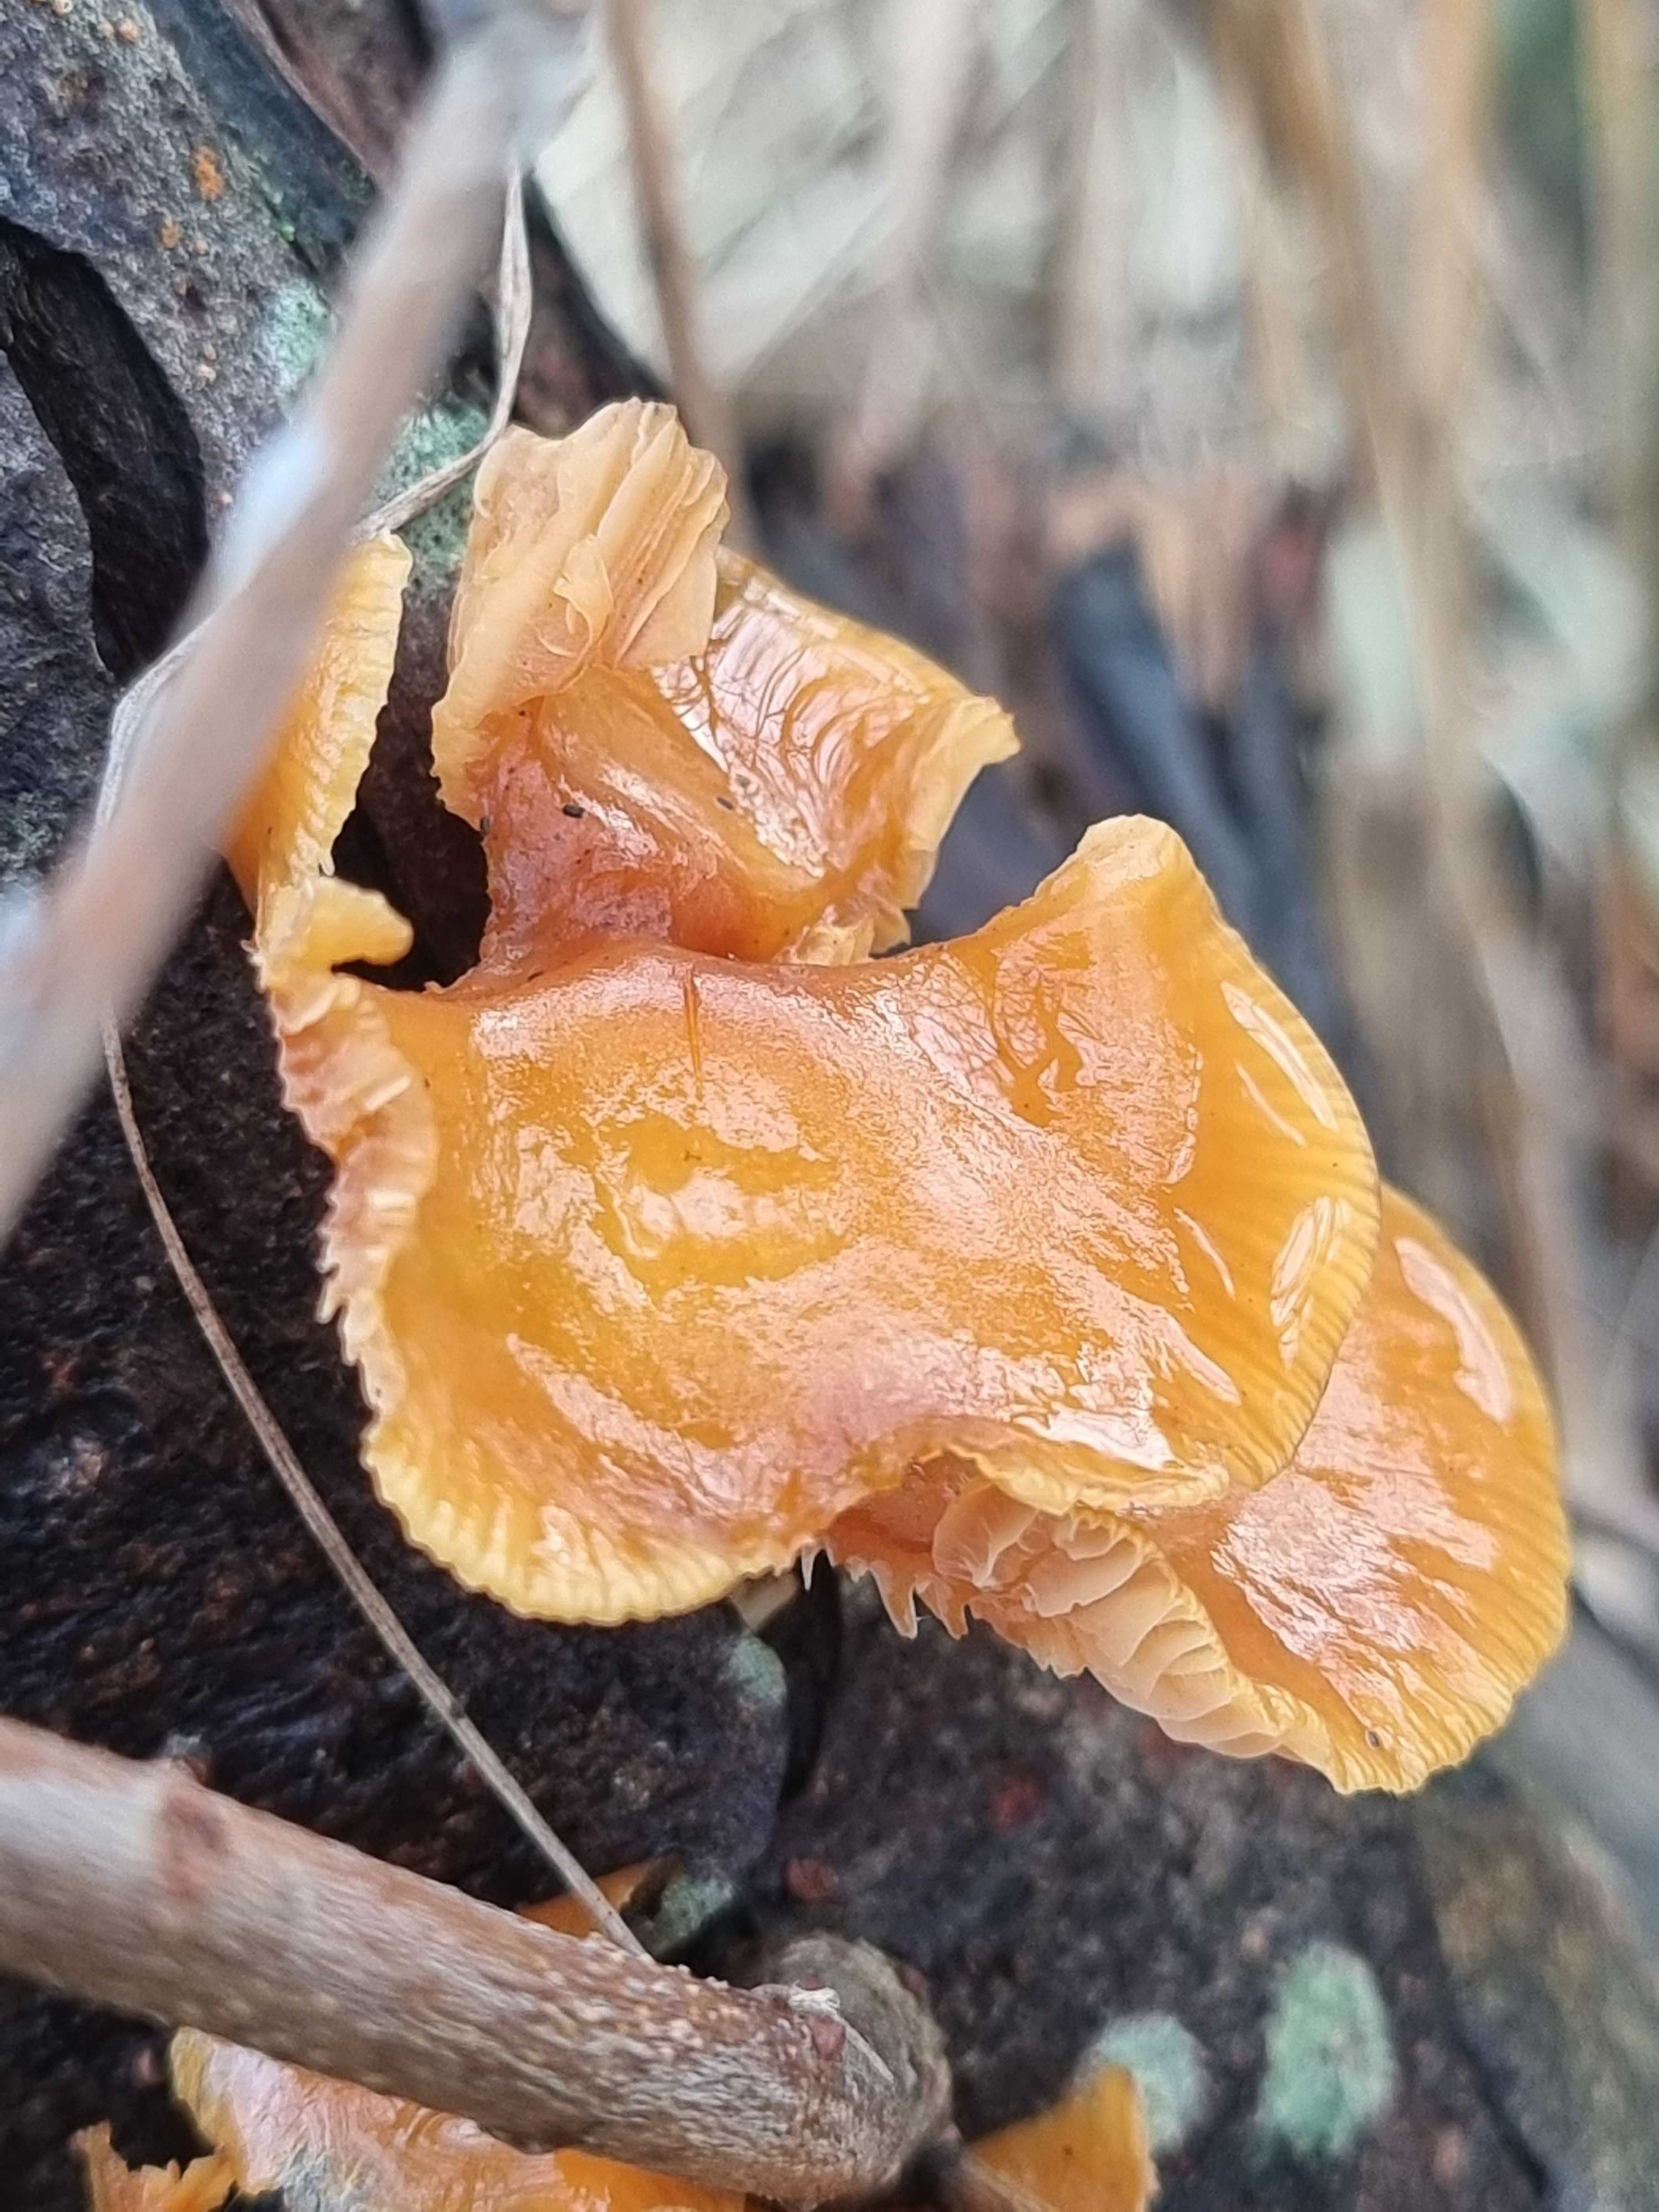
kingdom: Fungi
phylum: Basidiomycota
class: Agaricomycetes
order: Agaricales
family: Physalacriaceae
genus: Flammulina
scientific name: Flammulina
